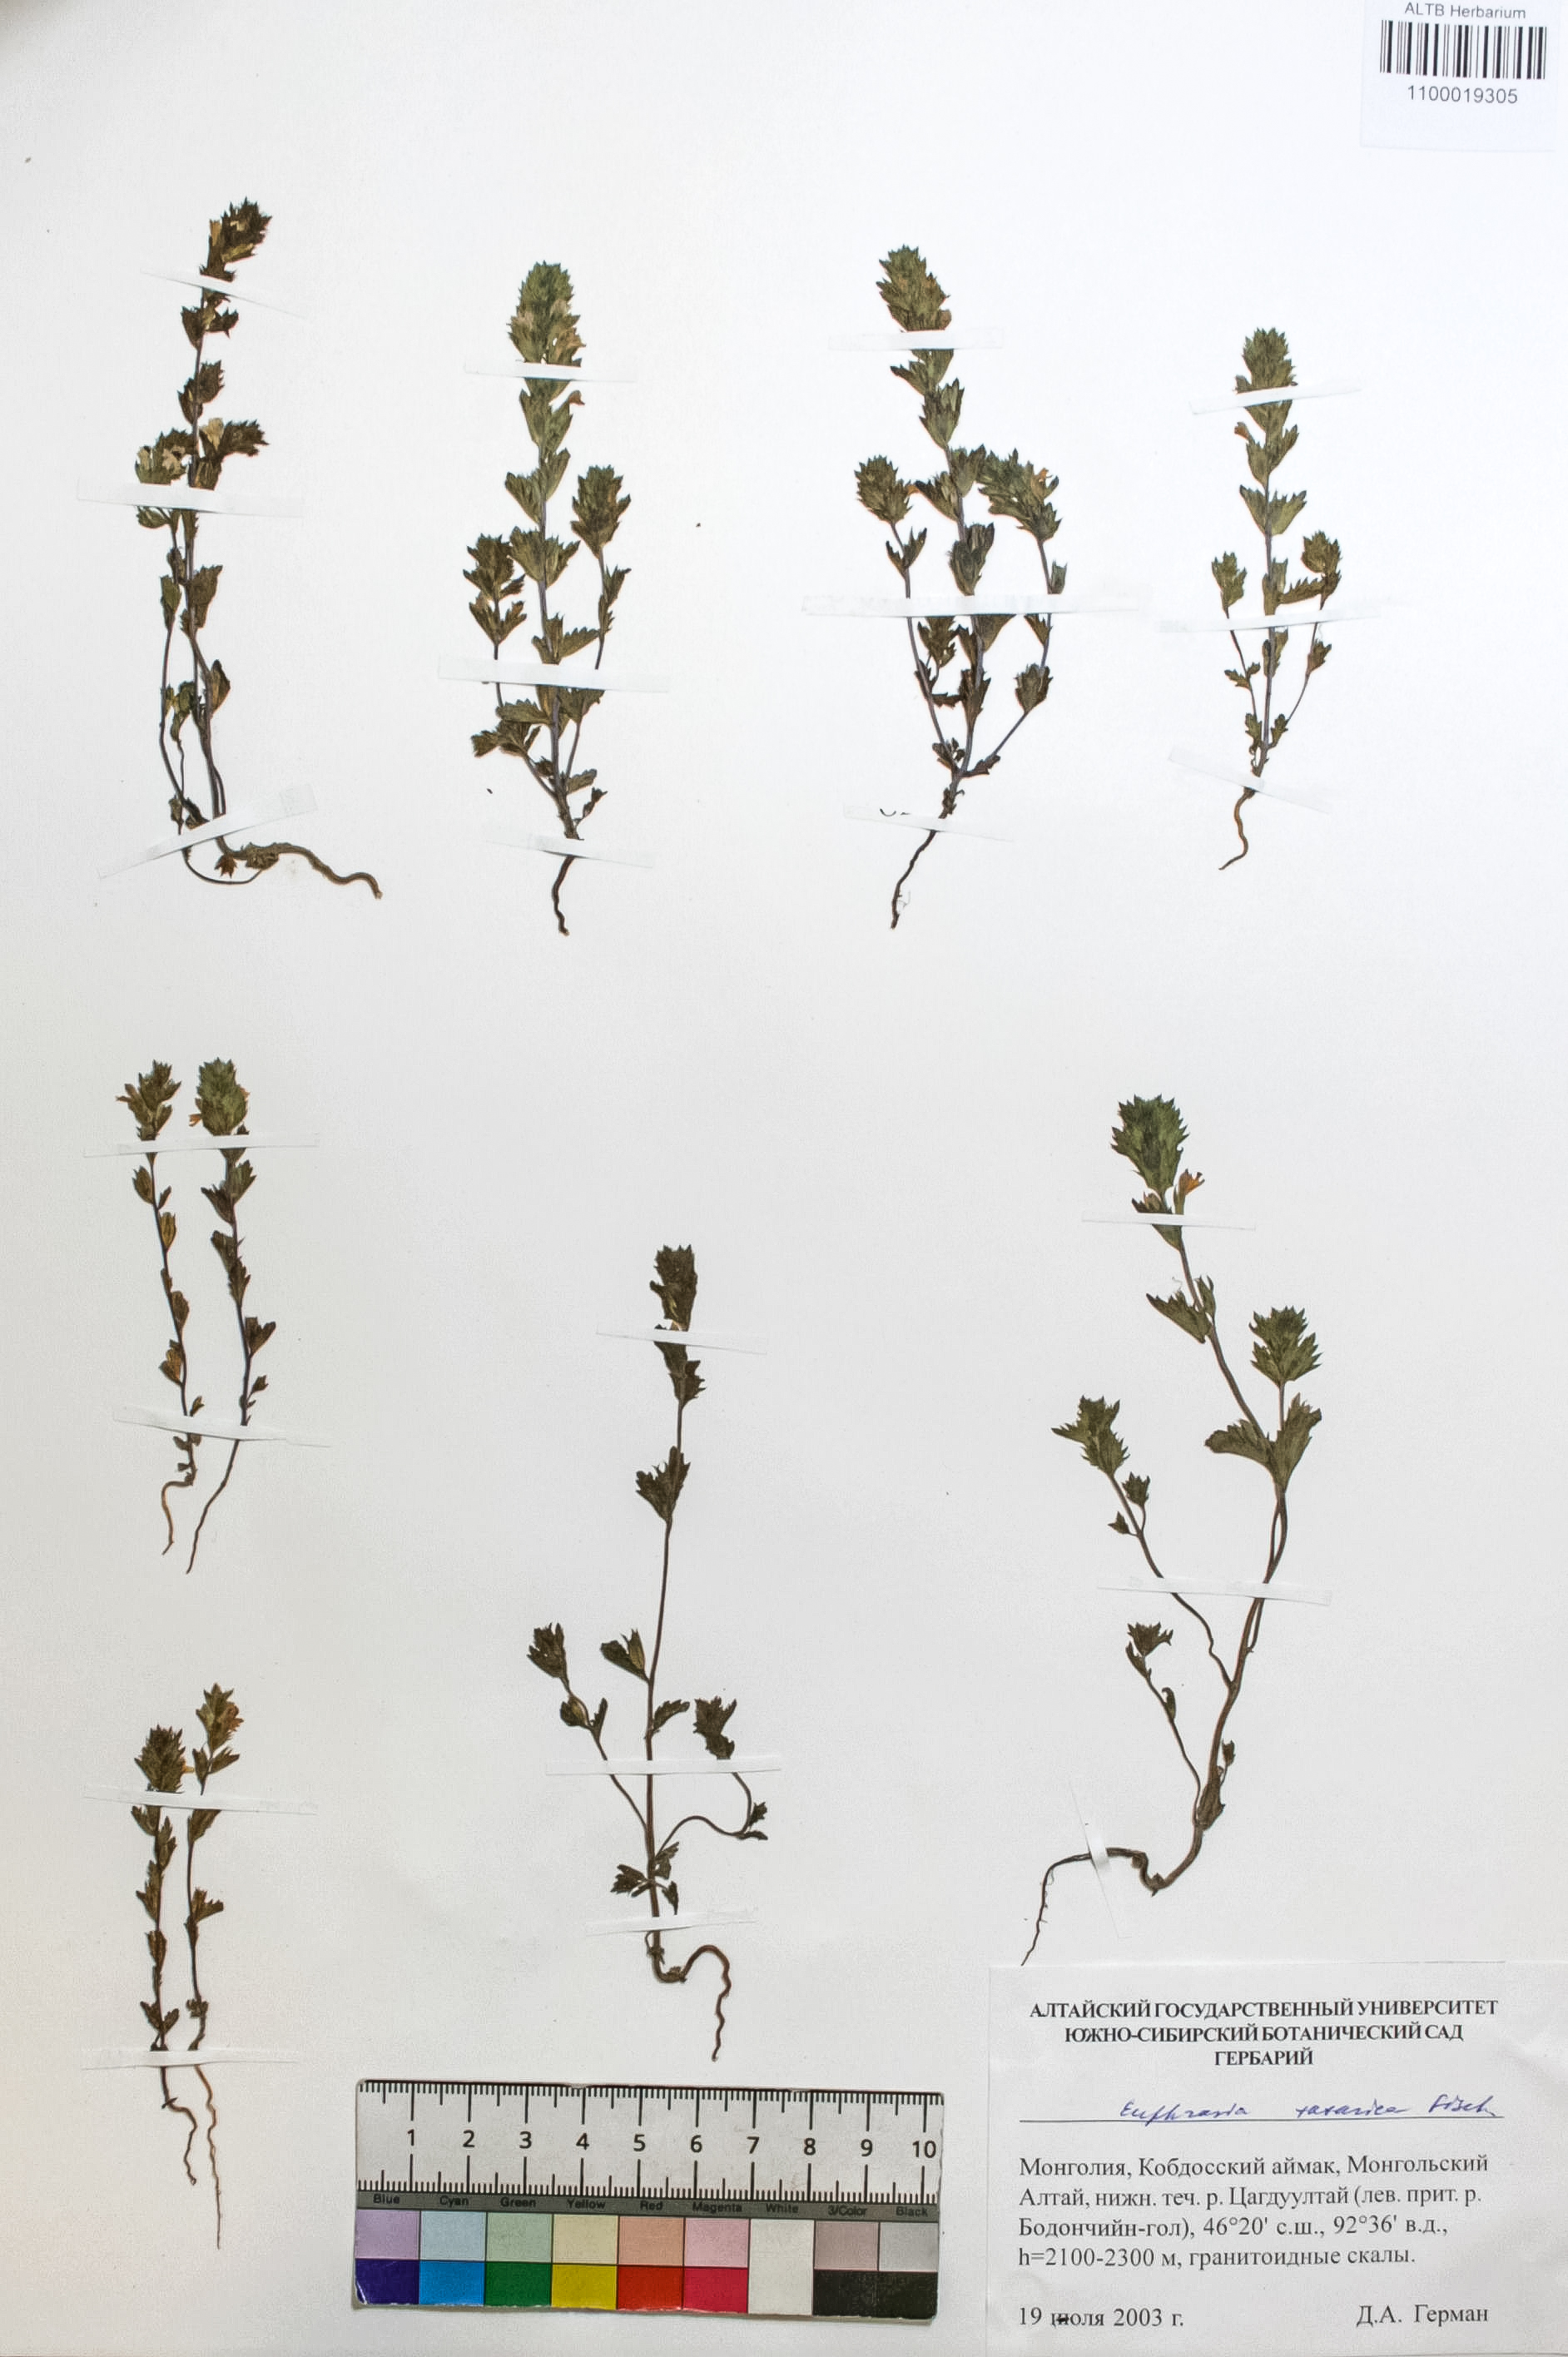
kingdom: Plantae
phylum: Tracheophyta
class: Magnoliopsida
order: Lamiales
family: Orobanchaceae
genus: Euphrasia
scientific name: Euphrasia pectinata
